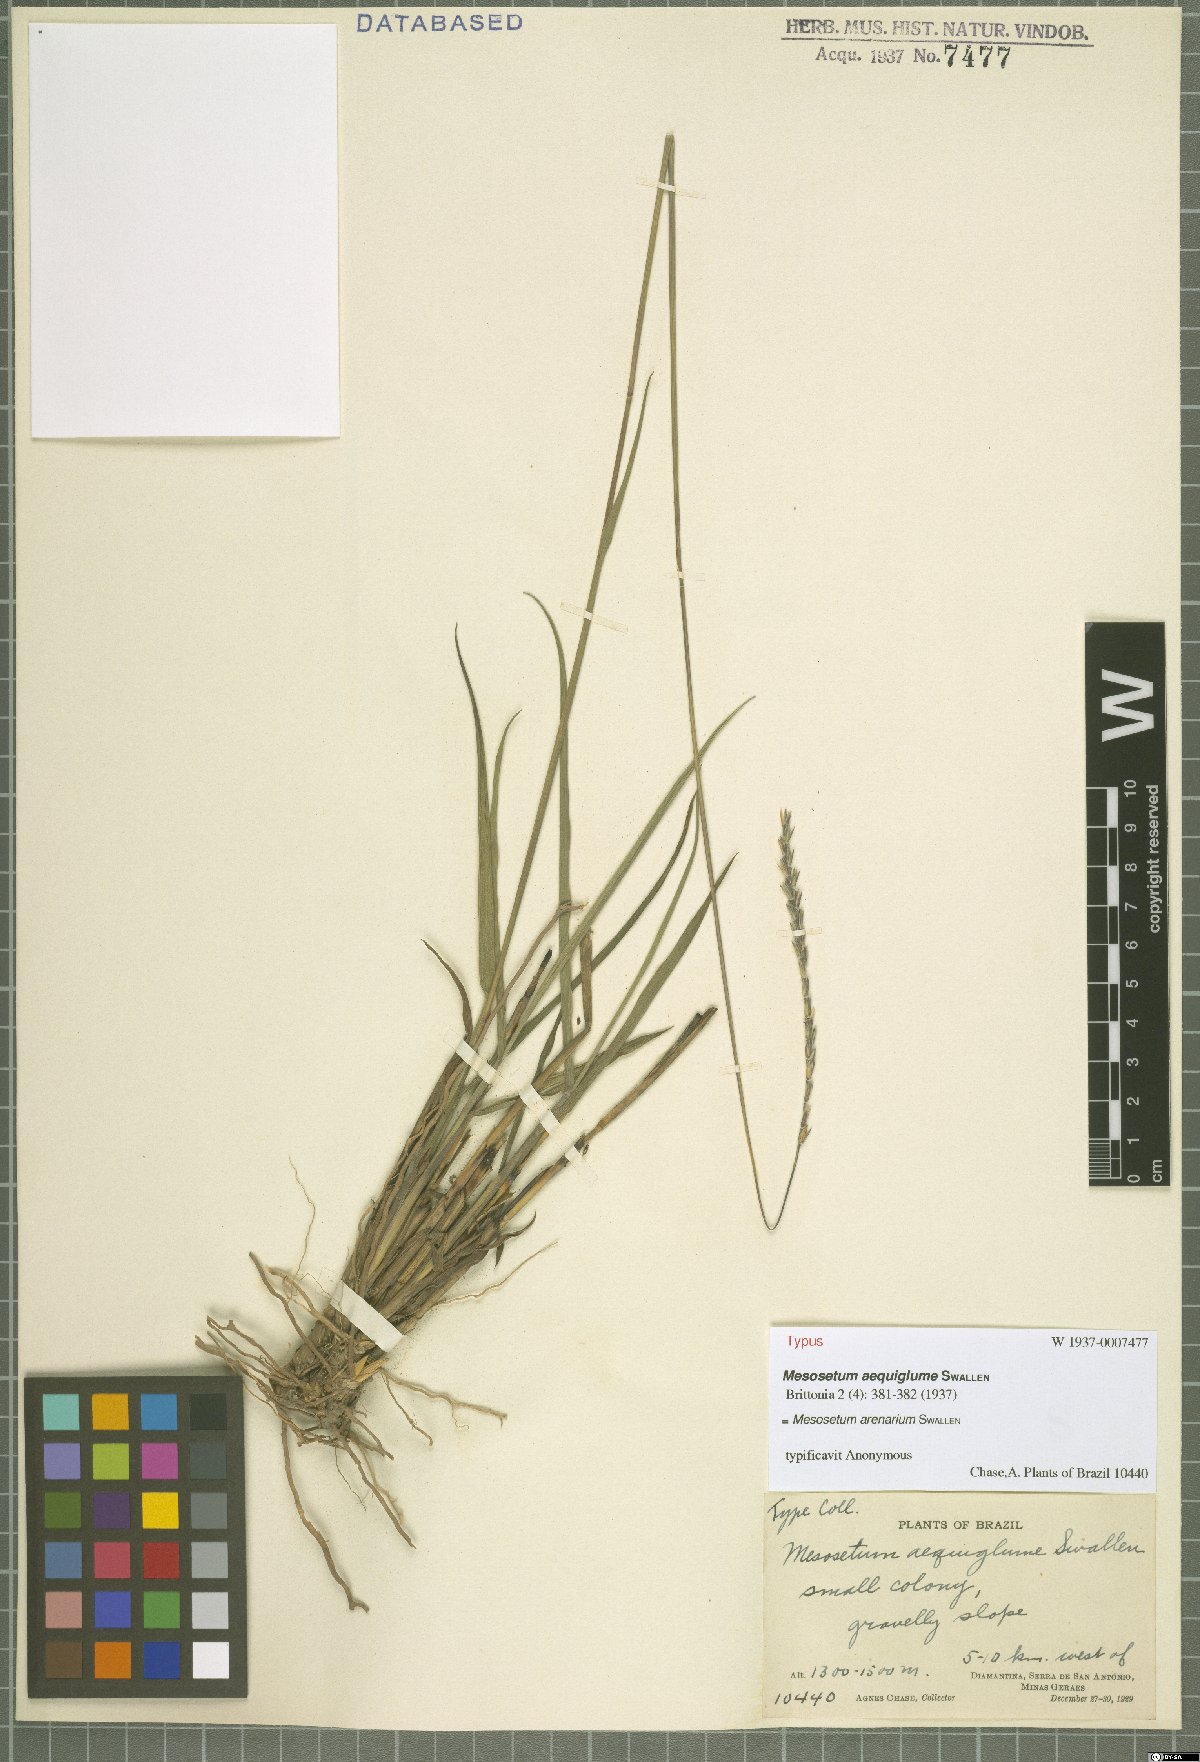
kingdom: Plantae
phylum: Tracheophyta
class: Liliopsida
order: Poales
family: Poaceae
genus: Mesosetum
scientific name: Mesosetum arenarium
